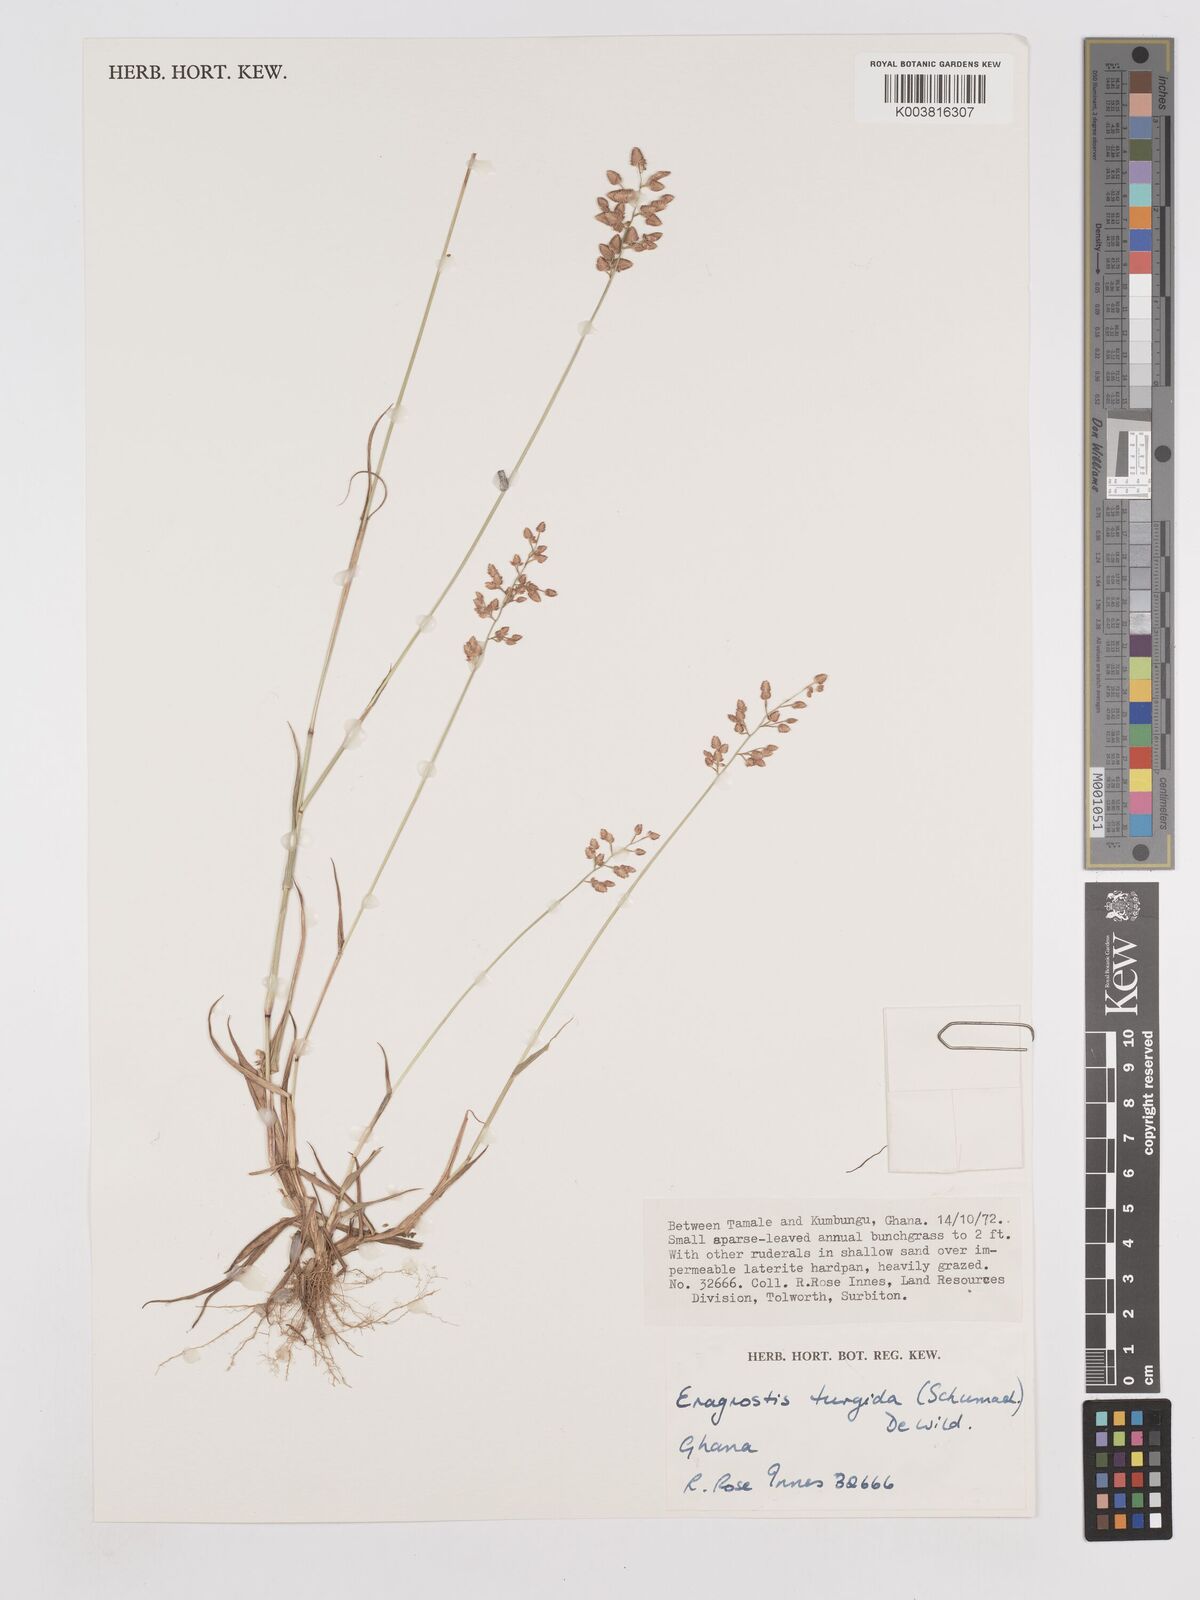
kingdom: Plantae
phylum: Tracheophyta
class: Liliopsida
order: Poales
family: Poaceae
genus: Eragrostis
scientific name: Eragrostis turgida
